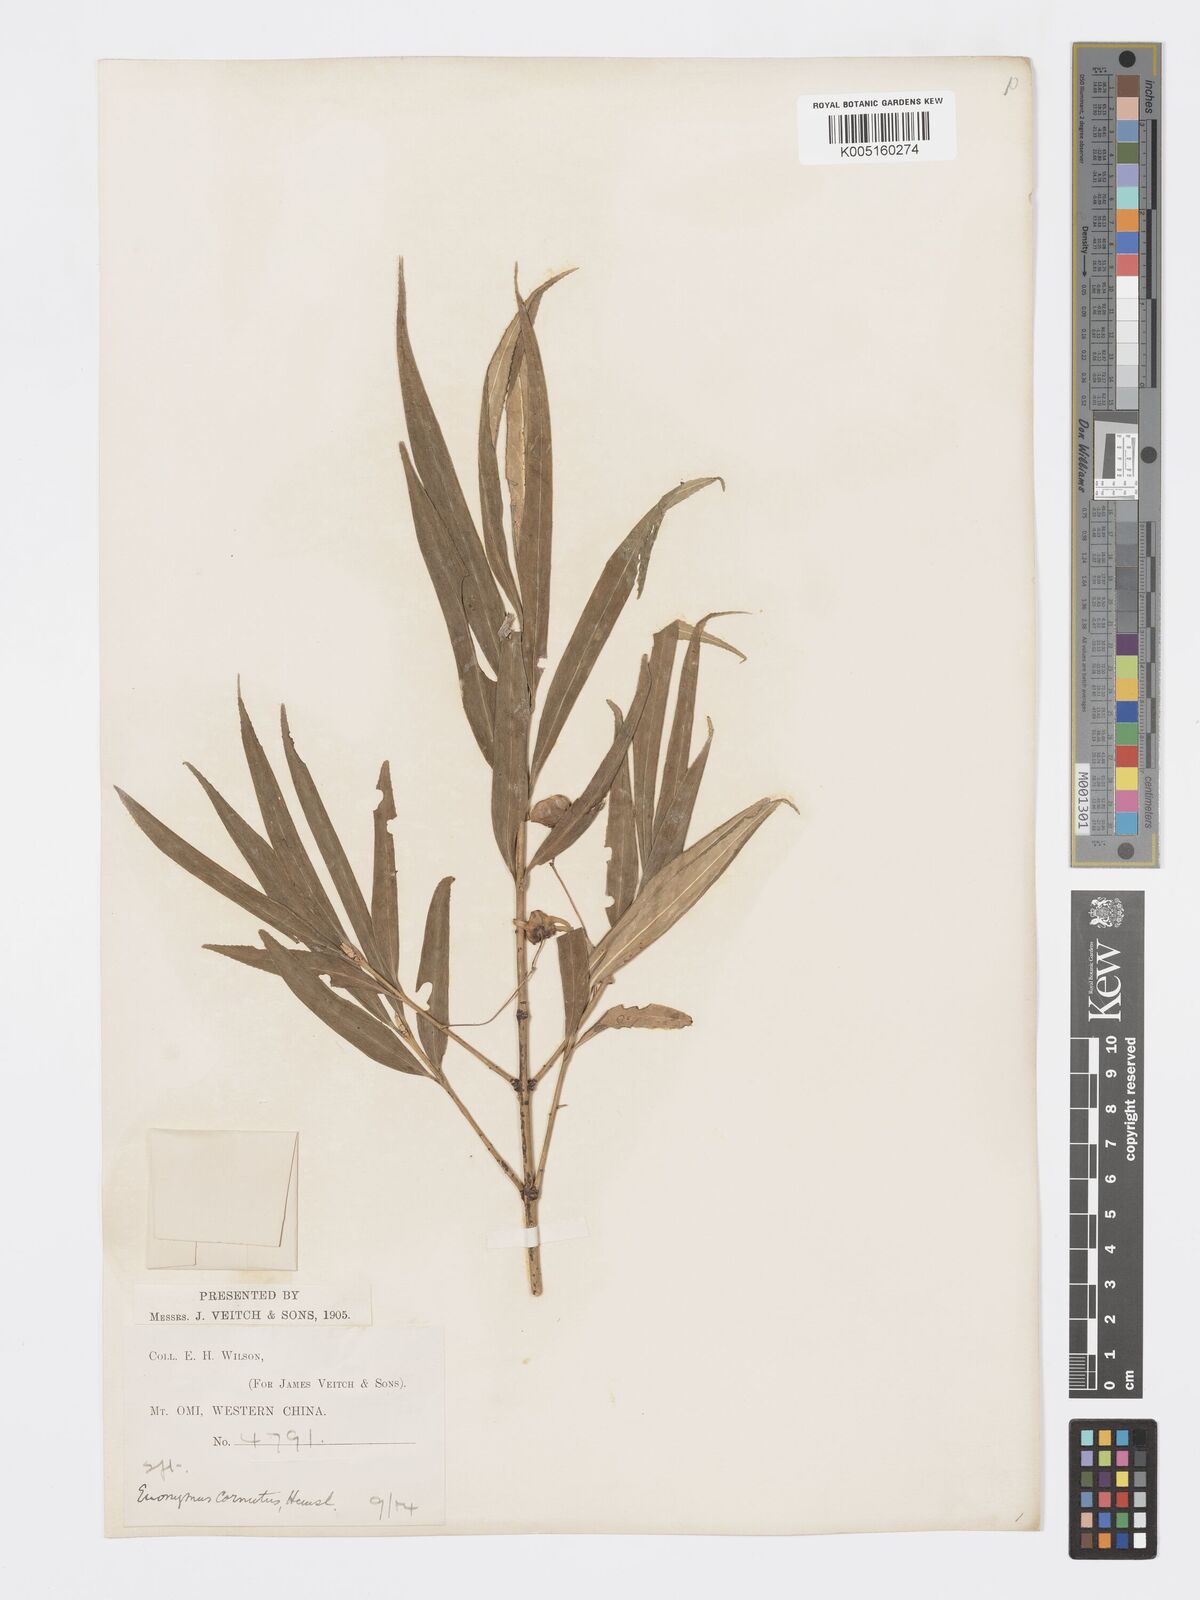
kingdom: Plantae
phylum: Tracheophyta
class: Magnoliopsida
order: Celastrales
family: Celastraceae
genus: Euonymus
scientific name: Euonymus cornutus
